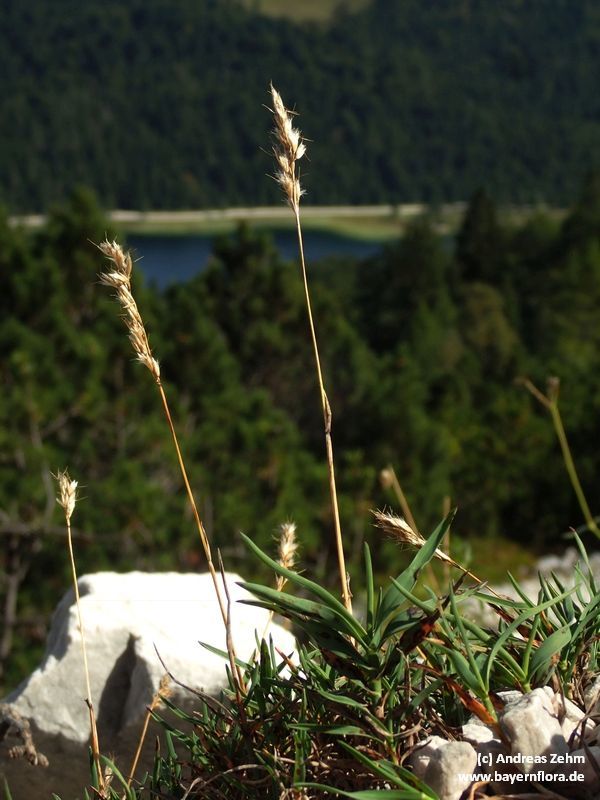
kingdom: Plantae
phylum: Tracheophyta
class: Liliopsida
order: Poales
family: Poaceae
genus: Acrospelion
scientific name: Acrospelion distichophyllum
